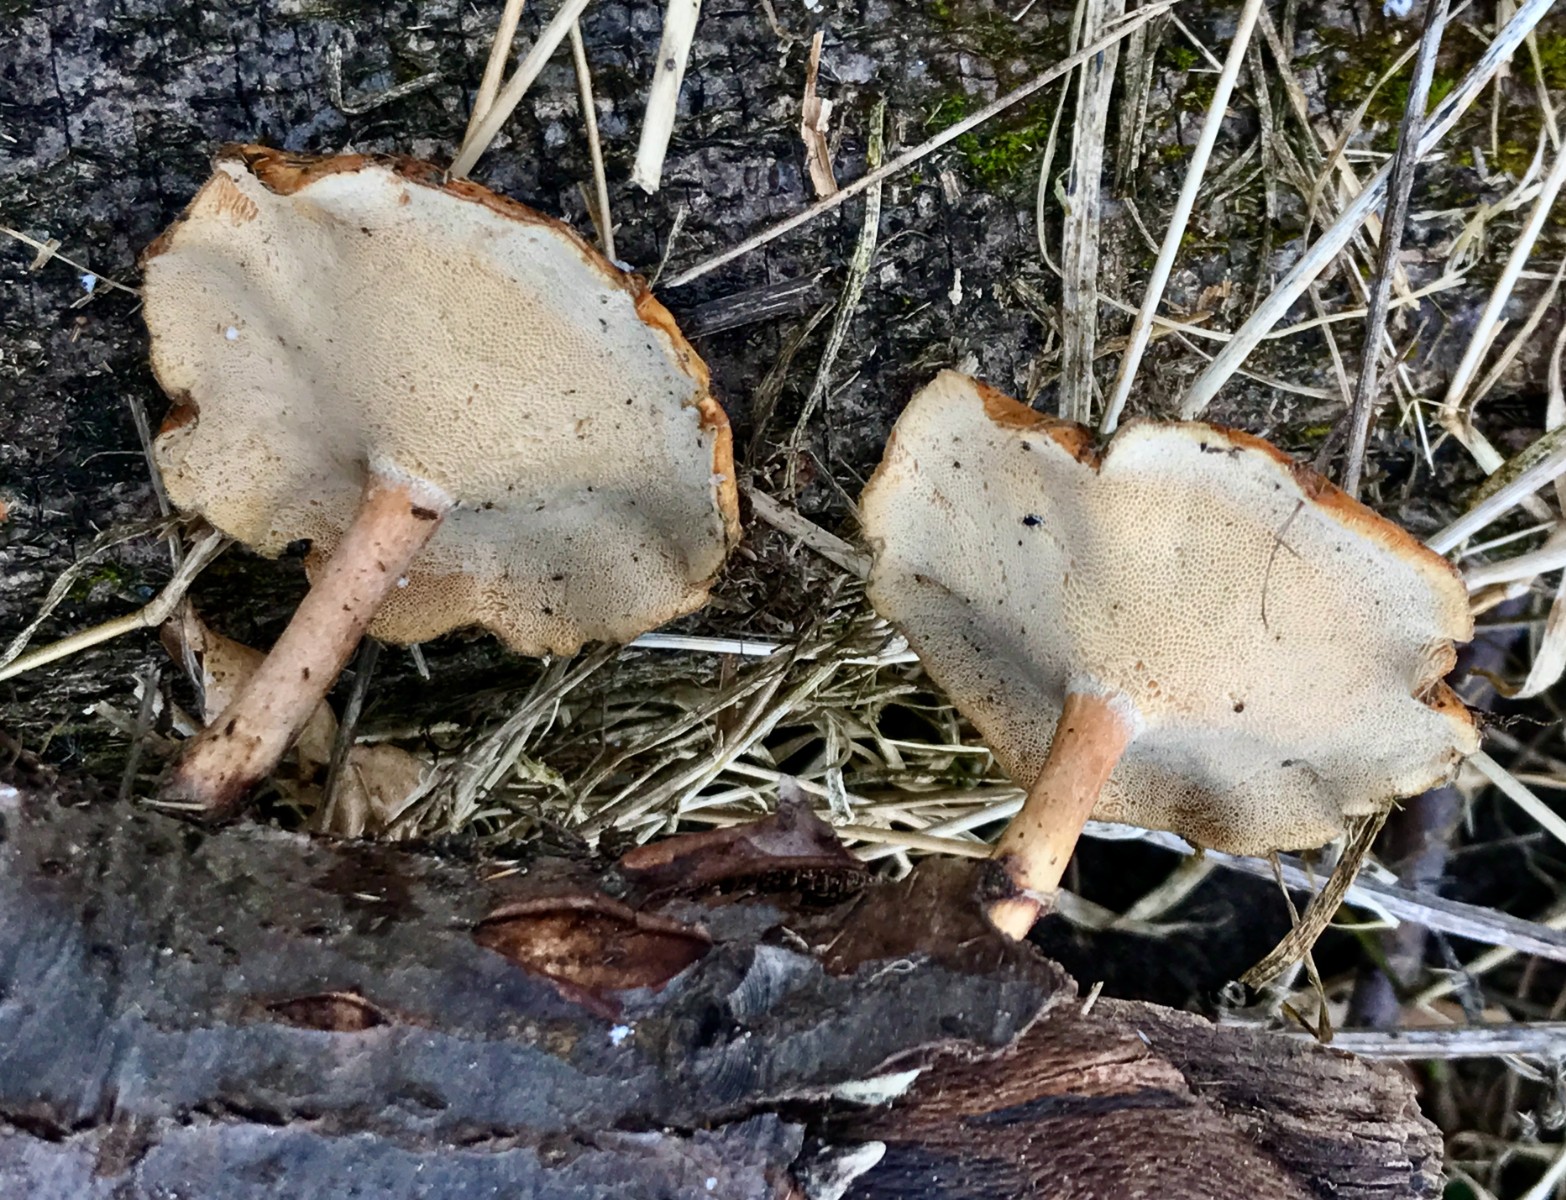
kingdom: Fungi
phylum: Basidiomycota
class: Agaricomycetes
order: Polyporales
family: Polyporaceae
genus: Lentinus
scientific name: Lentinus brumalis
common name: vinter-stilkporesvamp
